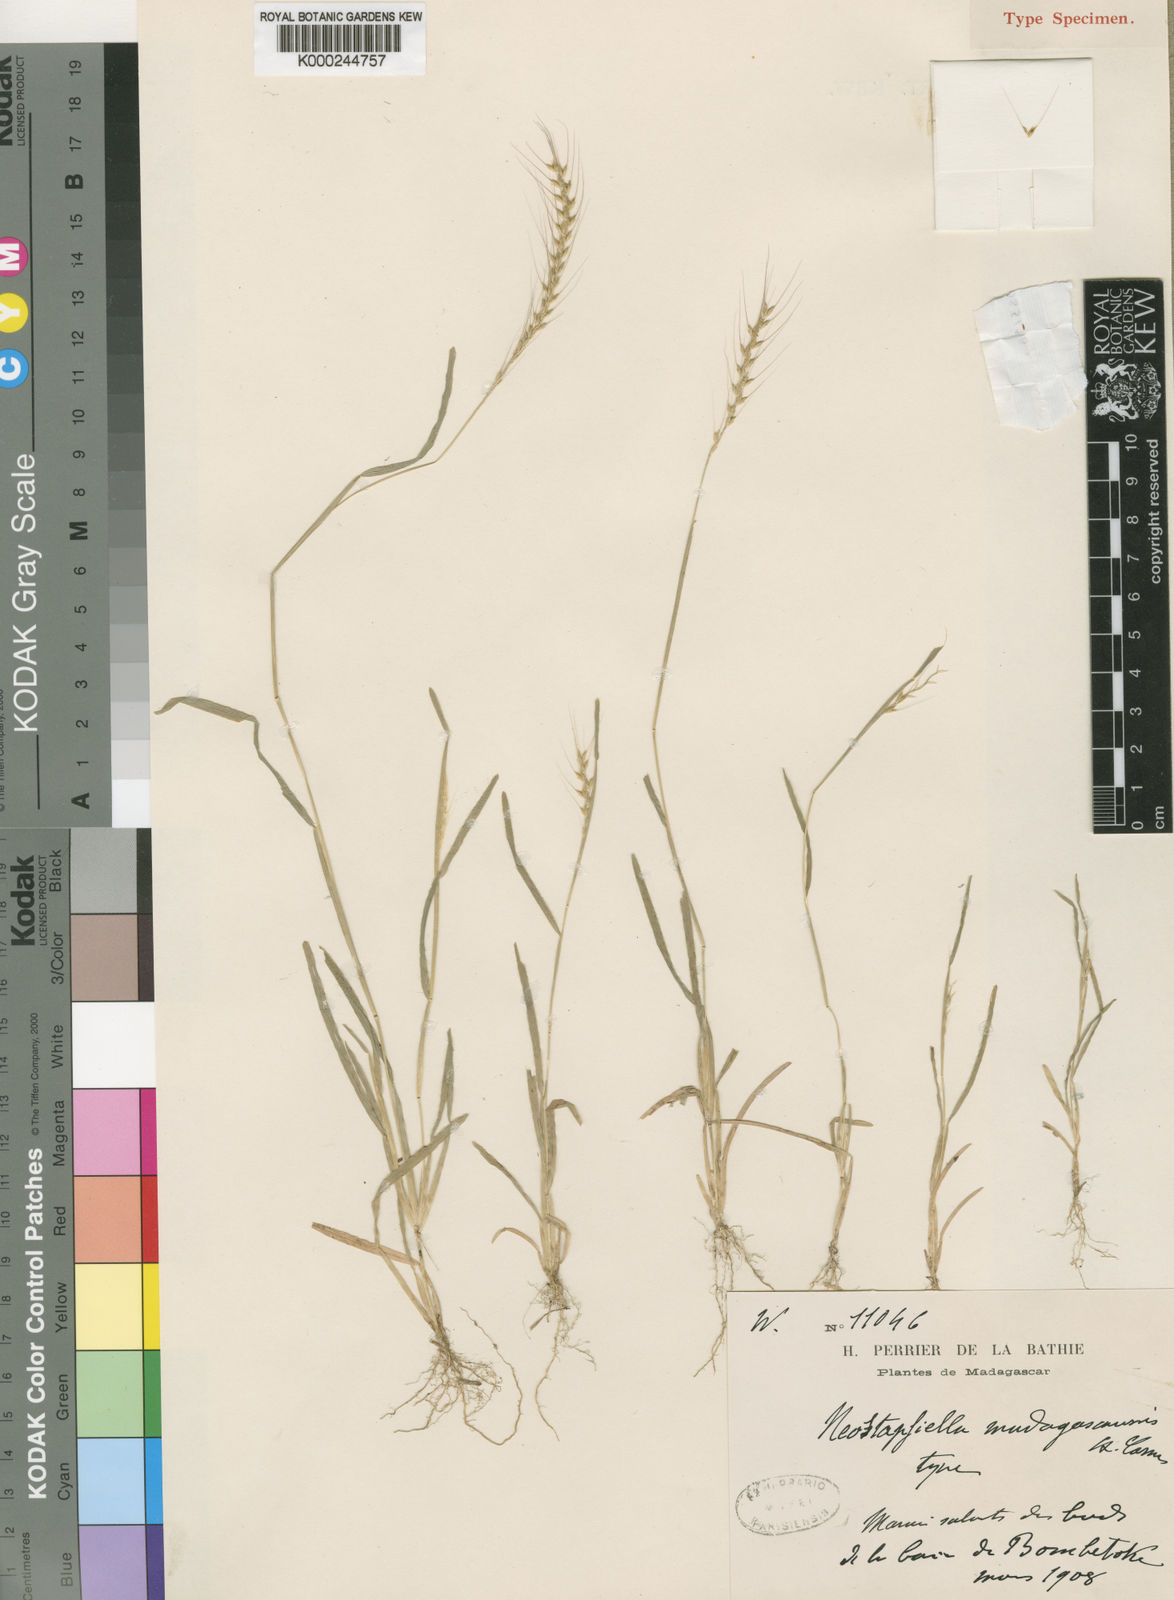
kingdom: Plantae
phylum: Tracheophyta
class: Liliopsida
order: Poales
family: Poaceae
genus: Neostapfiella
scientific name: Neostapfiella chloridiantha
